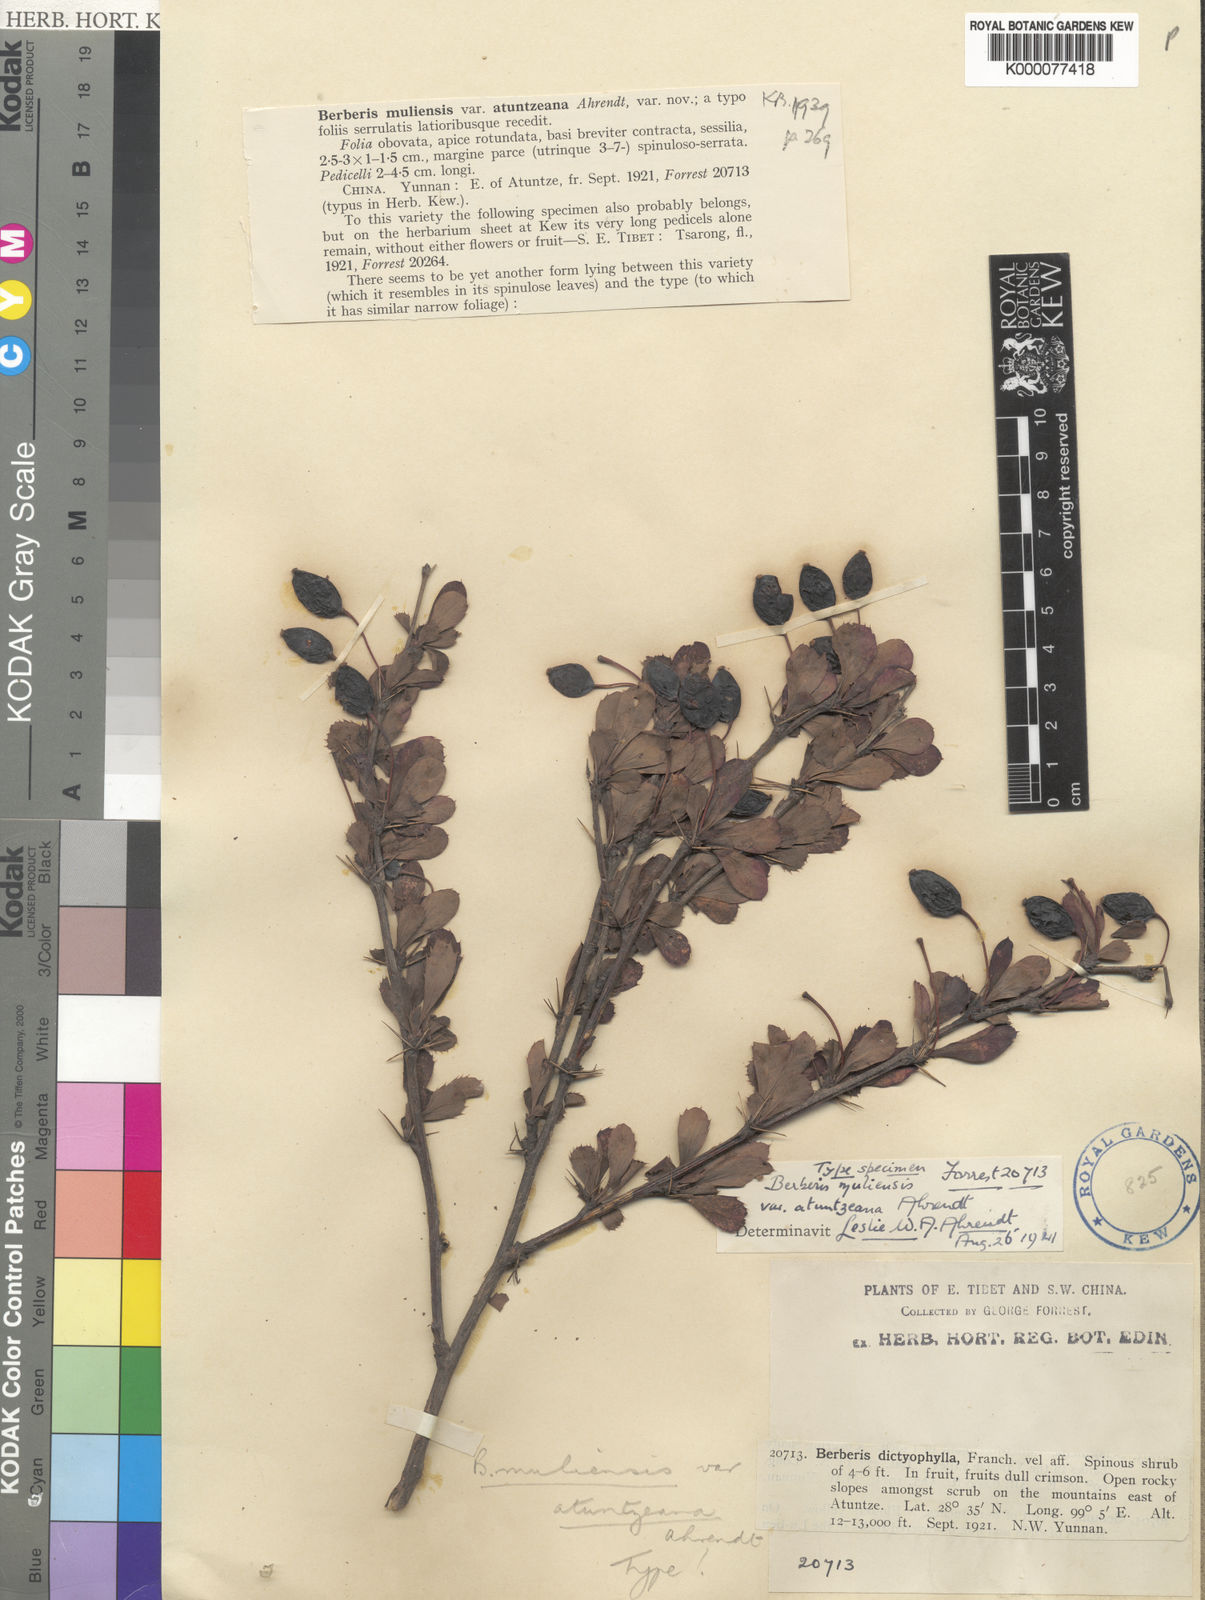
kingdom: Plantae
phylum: Tracheophyta
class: Magnoliopsida
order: Ranunculales
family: Berberidaceae
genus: Berberis
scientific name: Berberis muliensis
